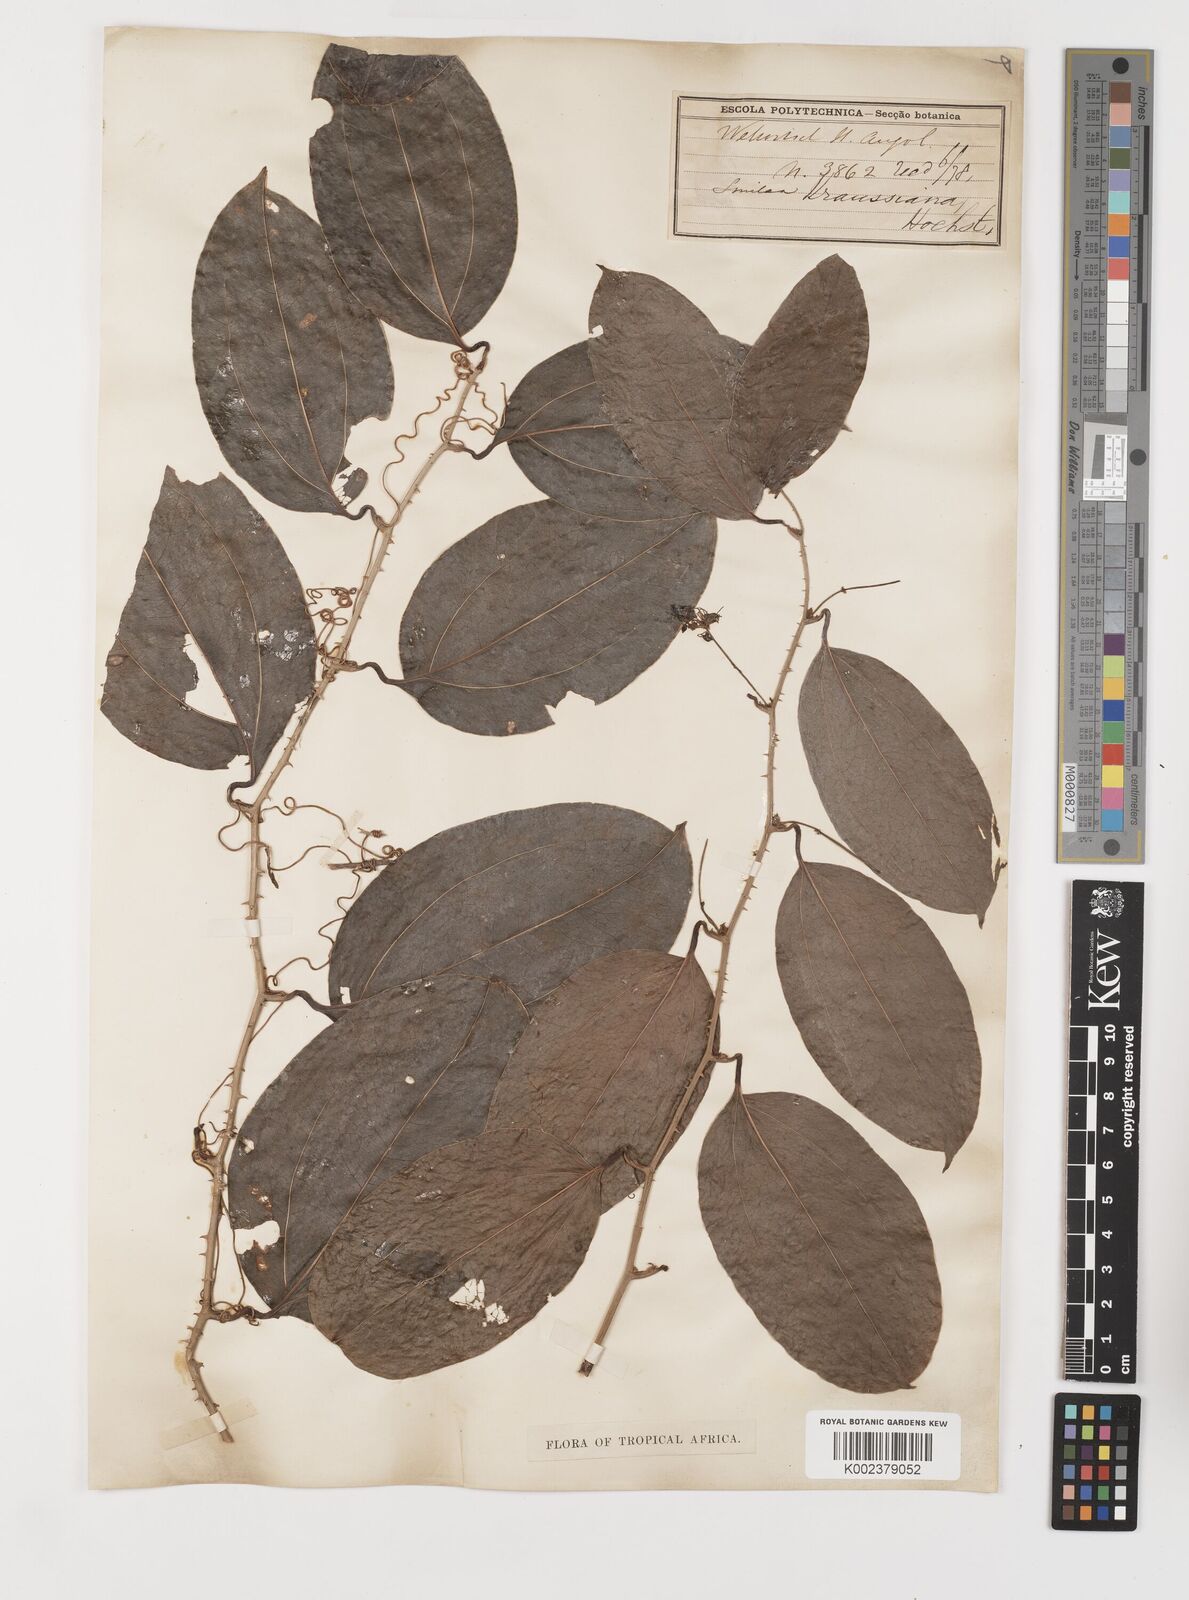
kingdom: Plantae
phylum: Tracheophyta
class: Liliopsida
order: Liliales
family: Smilacaceae
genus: Smilax
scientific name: Smilax anceps
